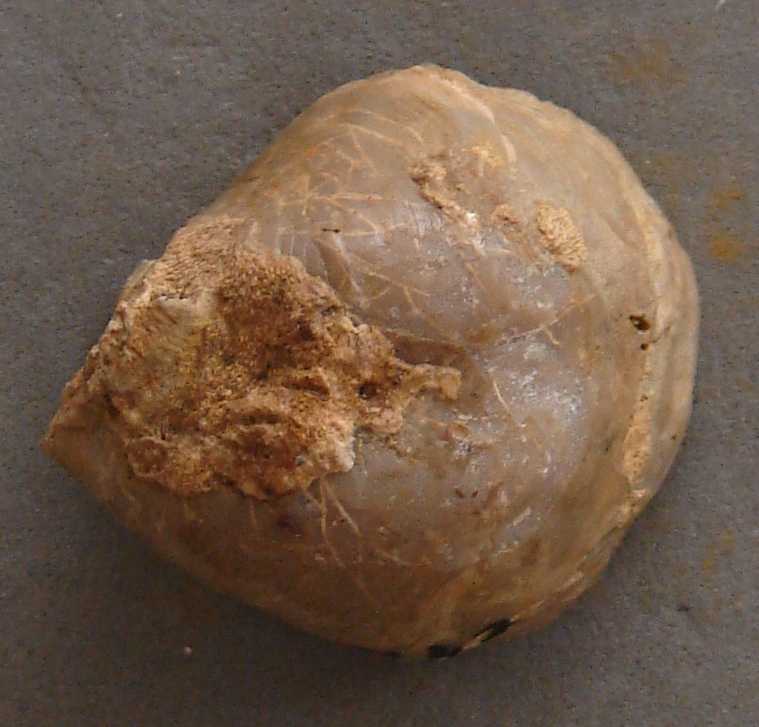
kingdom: Animalia
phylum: Mollusca
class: Bivalvia
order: Ostreida
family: Ostreidae
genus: Ostrea
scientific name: Ostrea
